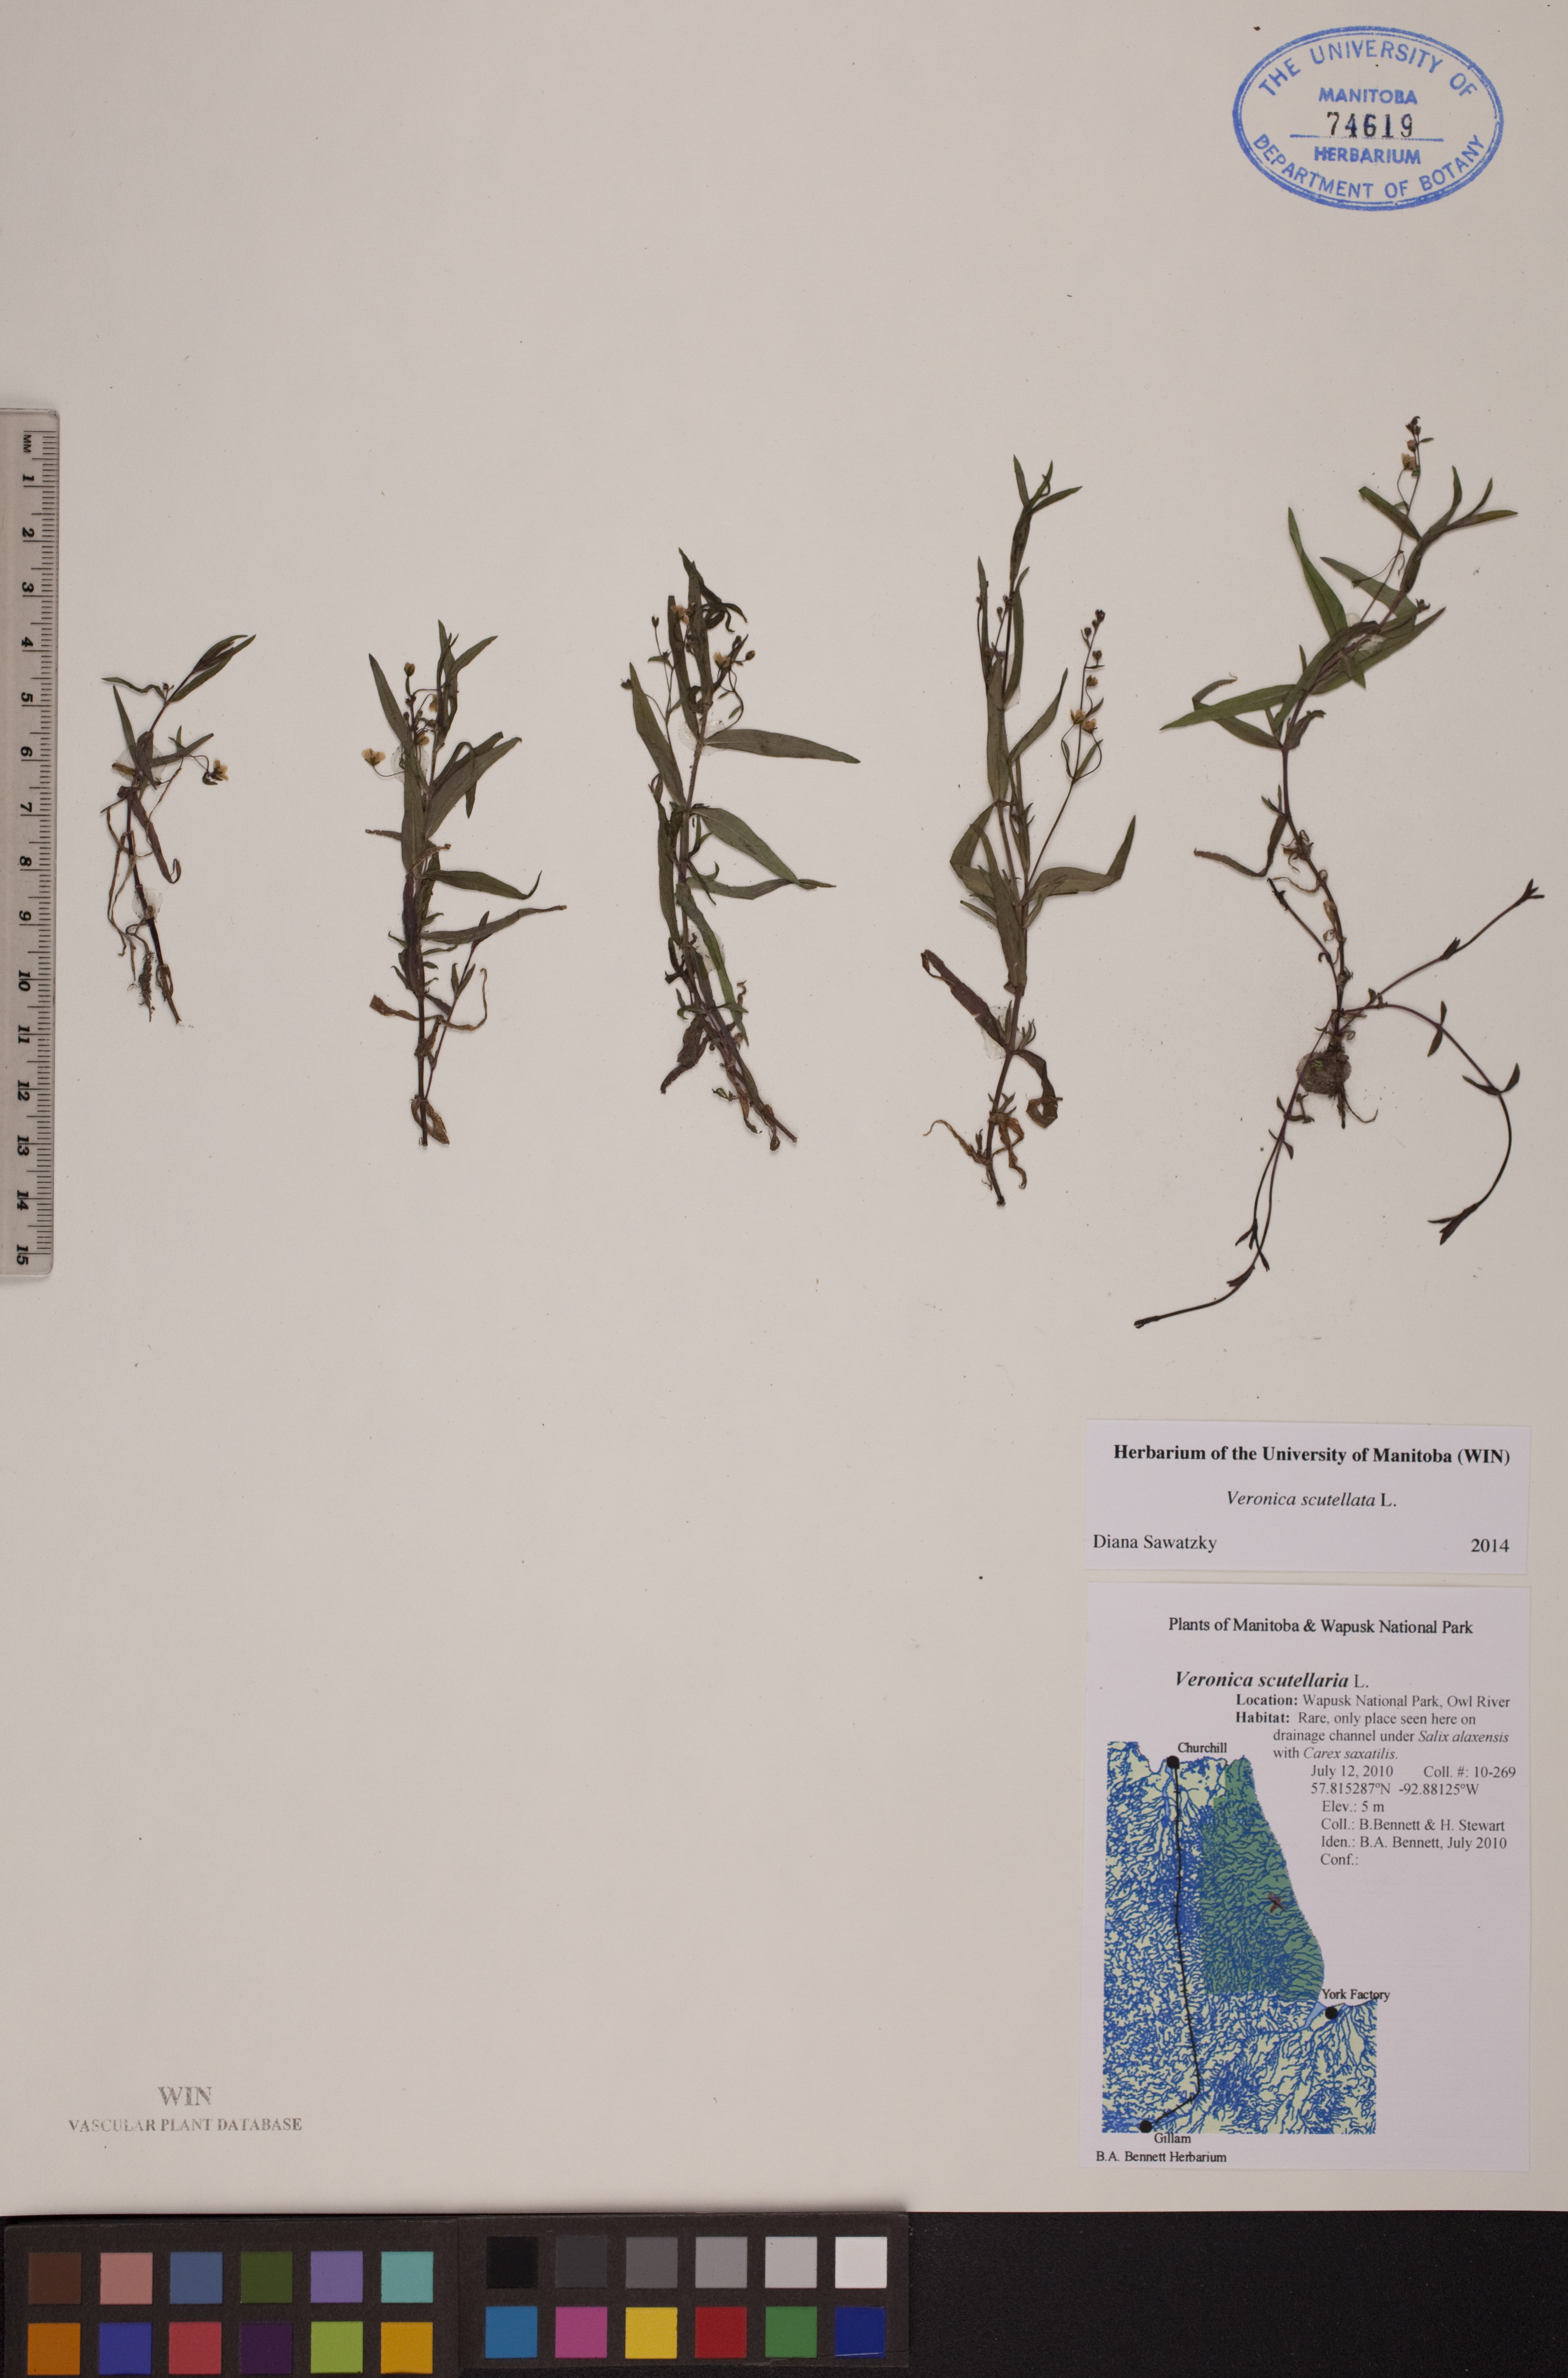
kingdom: Plantae
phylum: Tracheophyta
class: Magnoliopsida
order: Lamiales
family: Plantaginaceae
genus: Veronica
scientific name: Veronica scutellata
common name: Marsh speedwell
